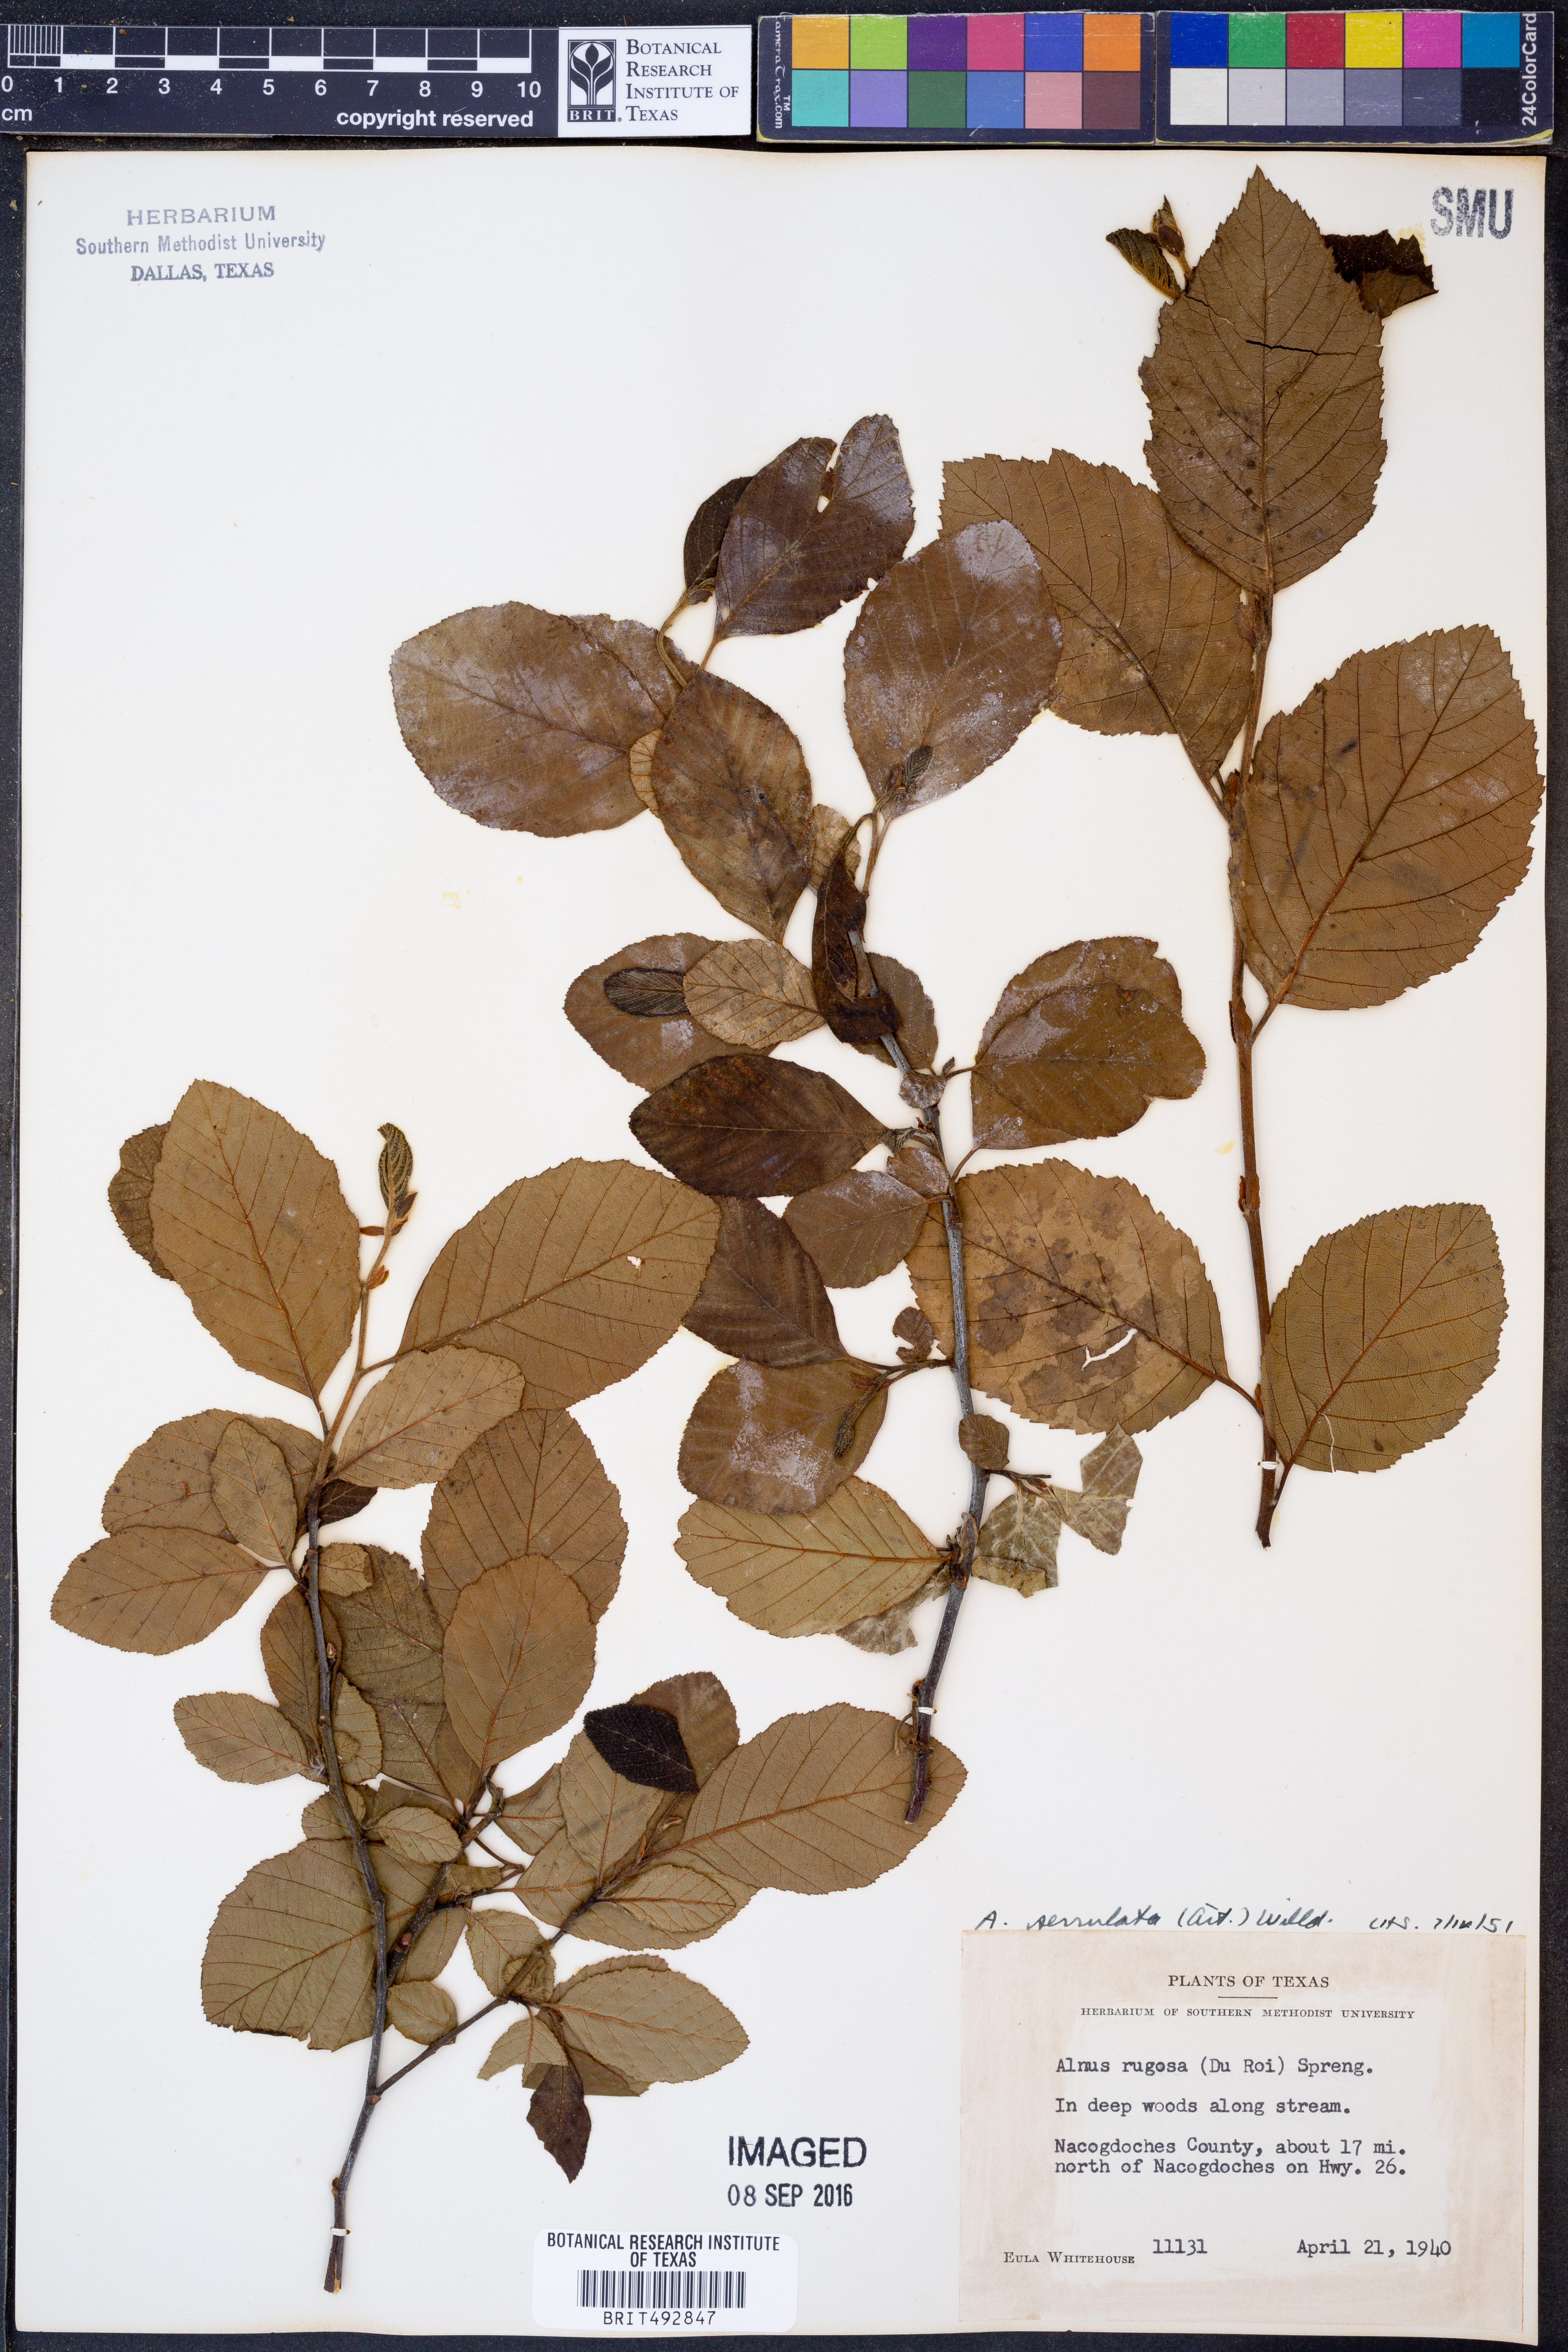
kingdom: Plantae
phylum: Tracheophyta
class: Magnoliopsida
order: Fagales
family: Betulaceae
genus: Alnus
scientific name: Alnus serrulata
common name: Hazel alder
